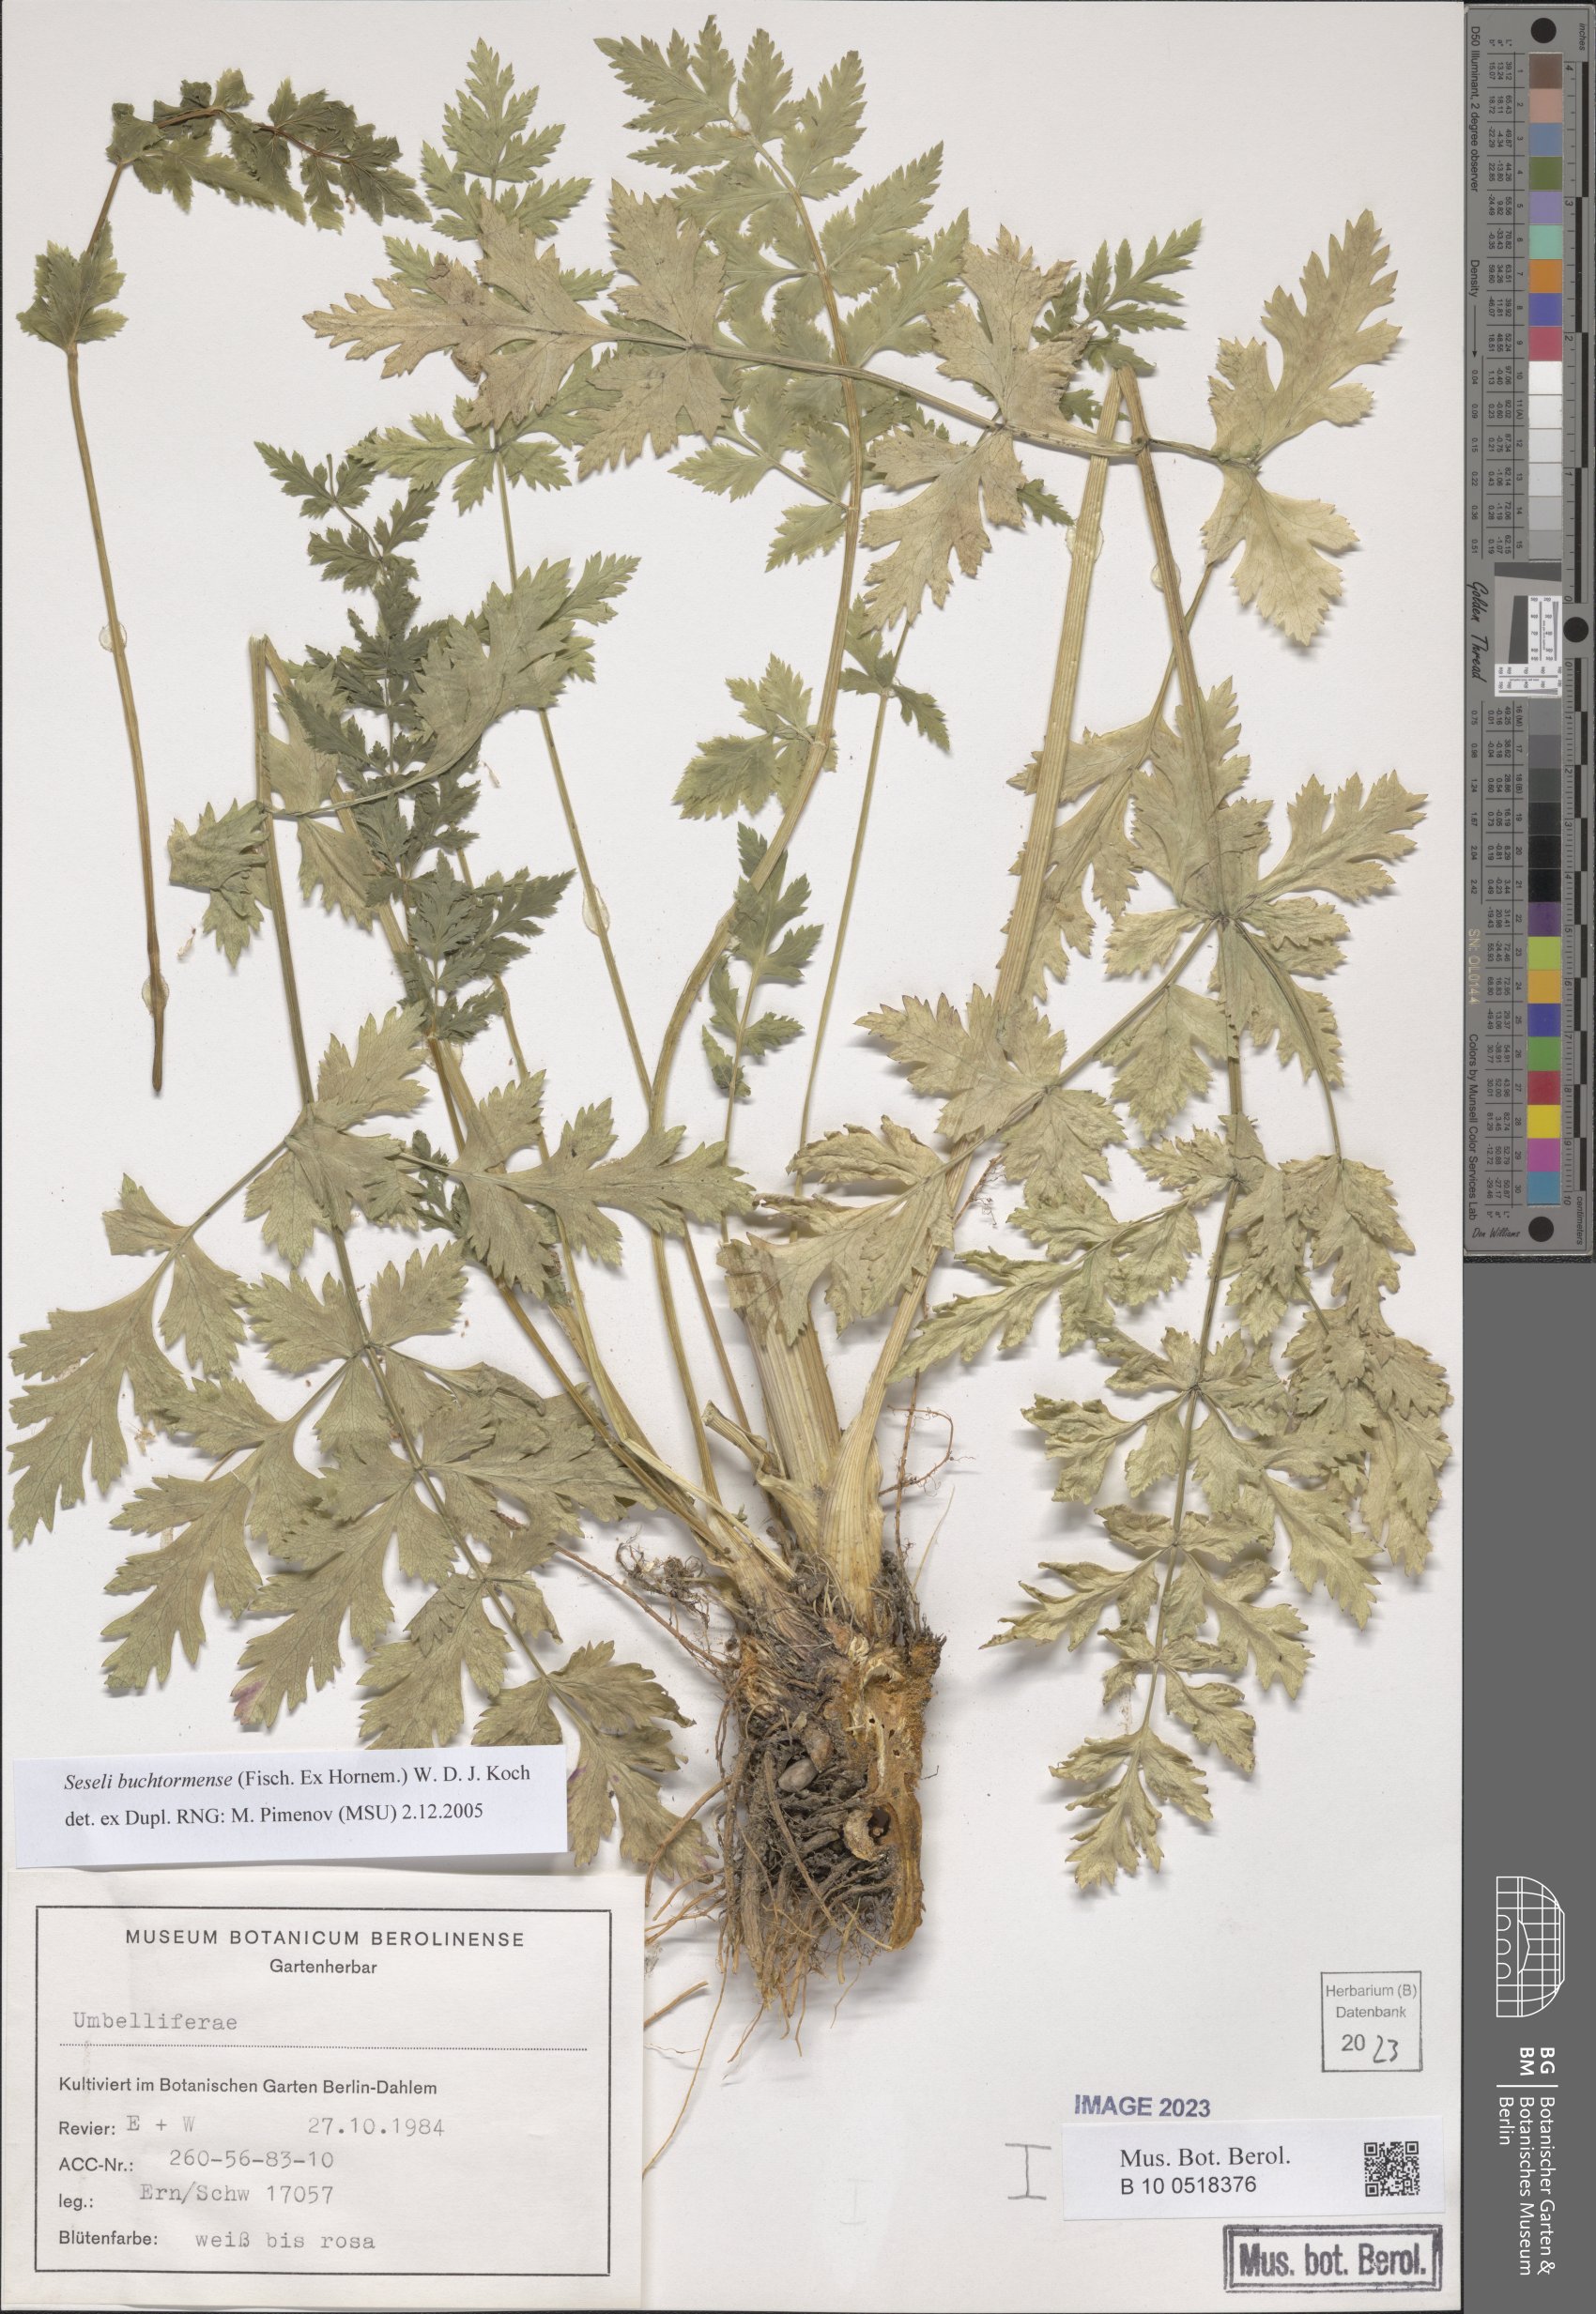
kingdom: Plantae
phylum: Tracheophyta
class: Magnoliopsida
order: Apiales
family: Apiaceae
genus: Seseli
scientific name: Seseli buchtormense
